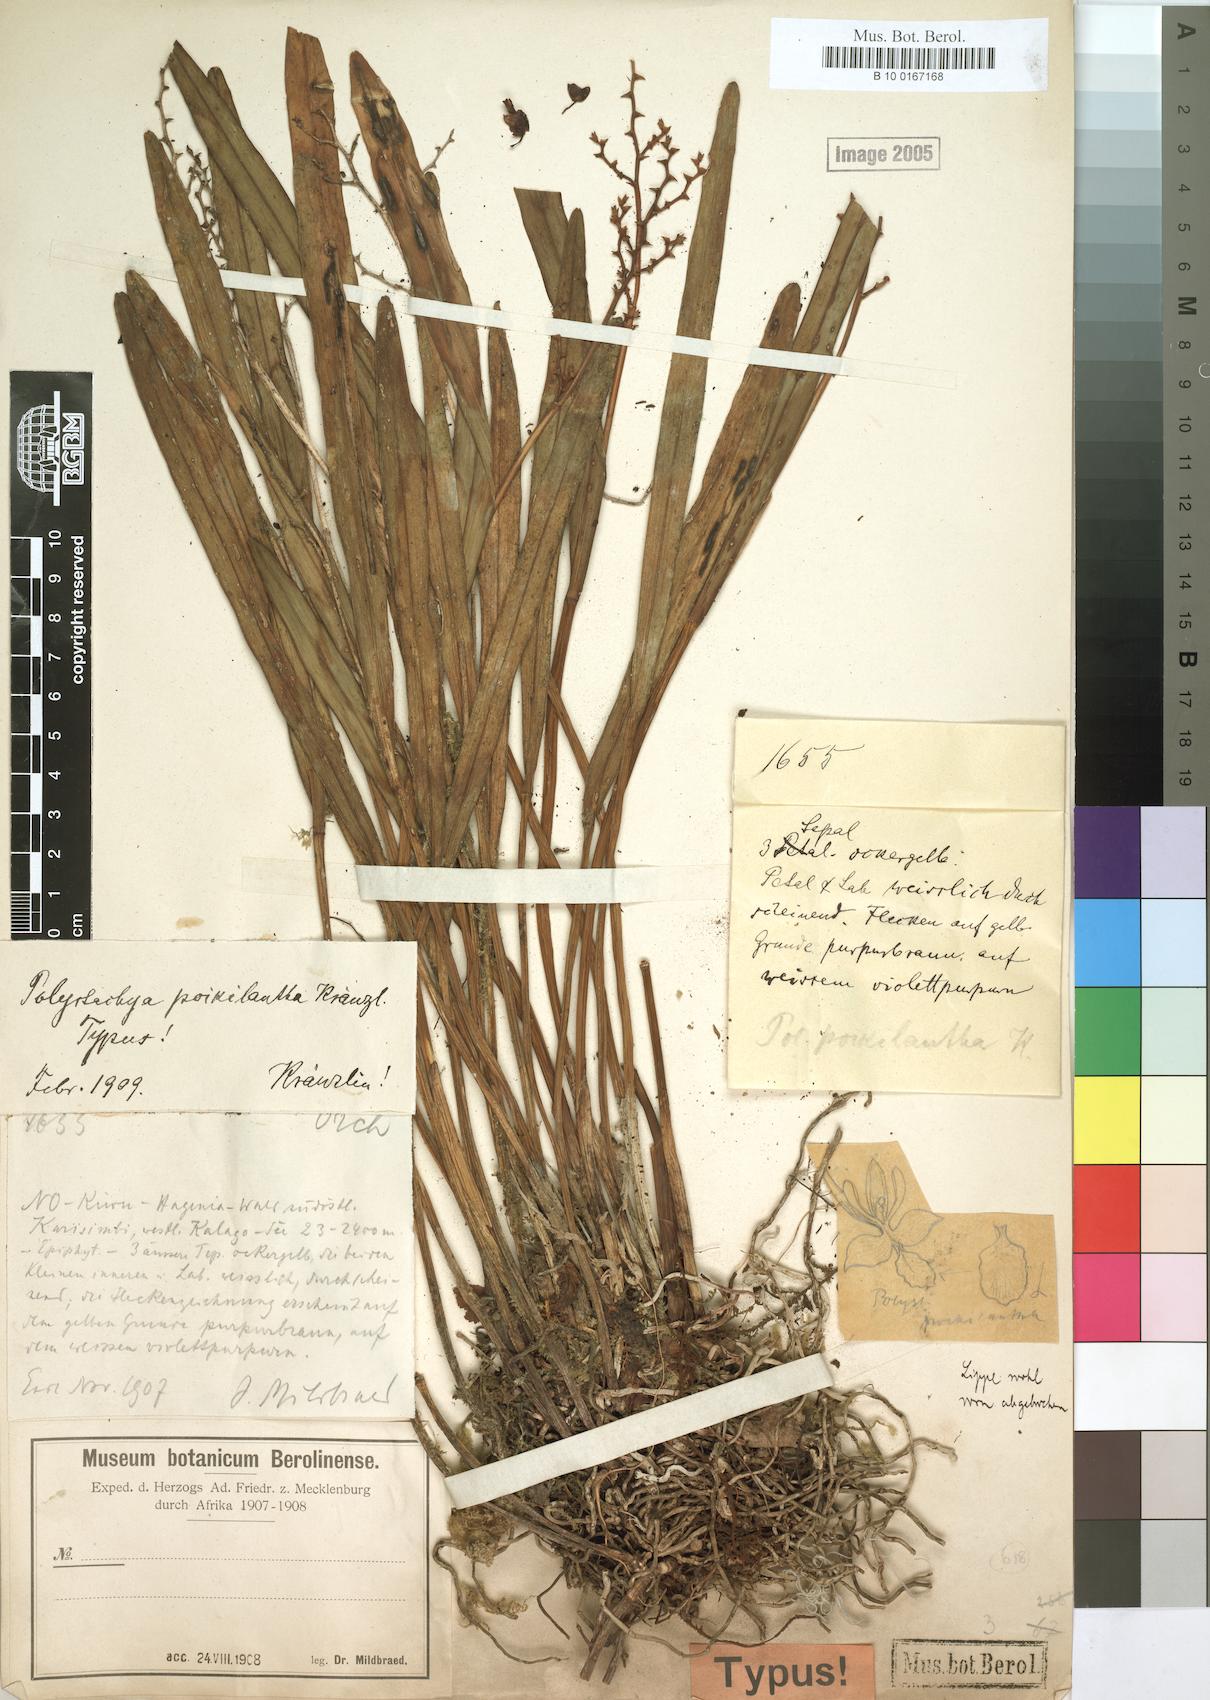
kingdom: Plantae
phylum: Tracheophyta
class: Liliopsida
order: Asparagales
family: Orchidaceae
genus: Polystachya
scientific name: Polystachya poikilantha
